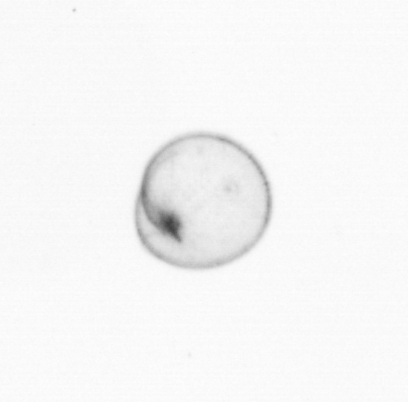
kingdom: Chromista
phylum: Myzozoa
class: Dinophyceae
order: Noctilucales
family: Noctilucaceae
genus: Noctiluca
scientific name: Noctiluca scintillans
